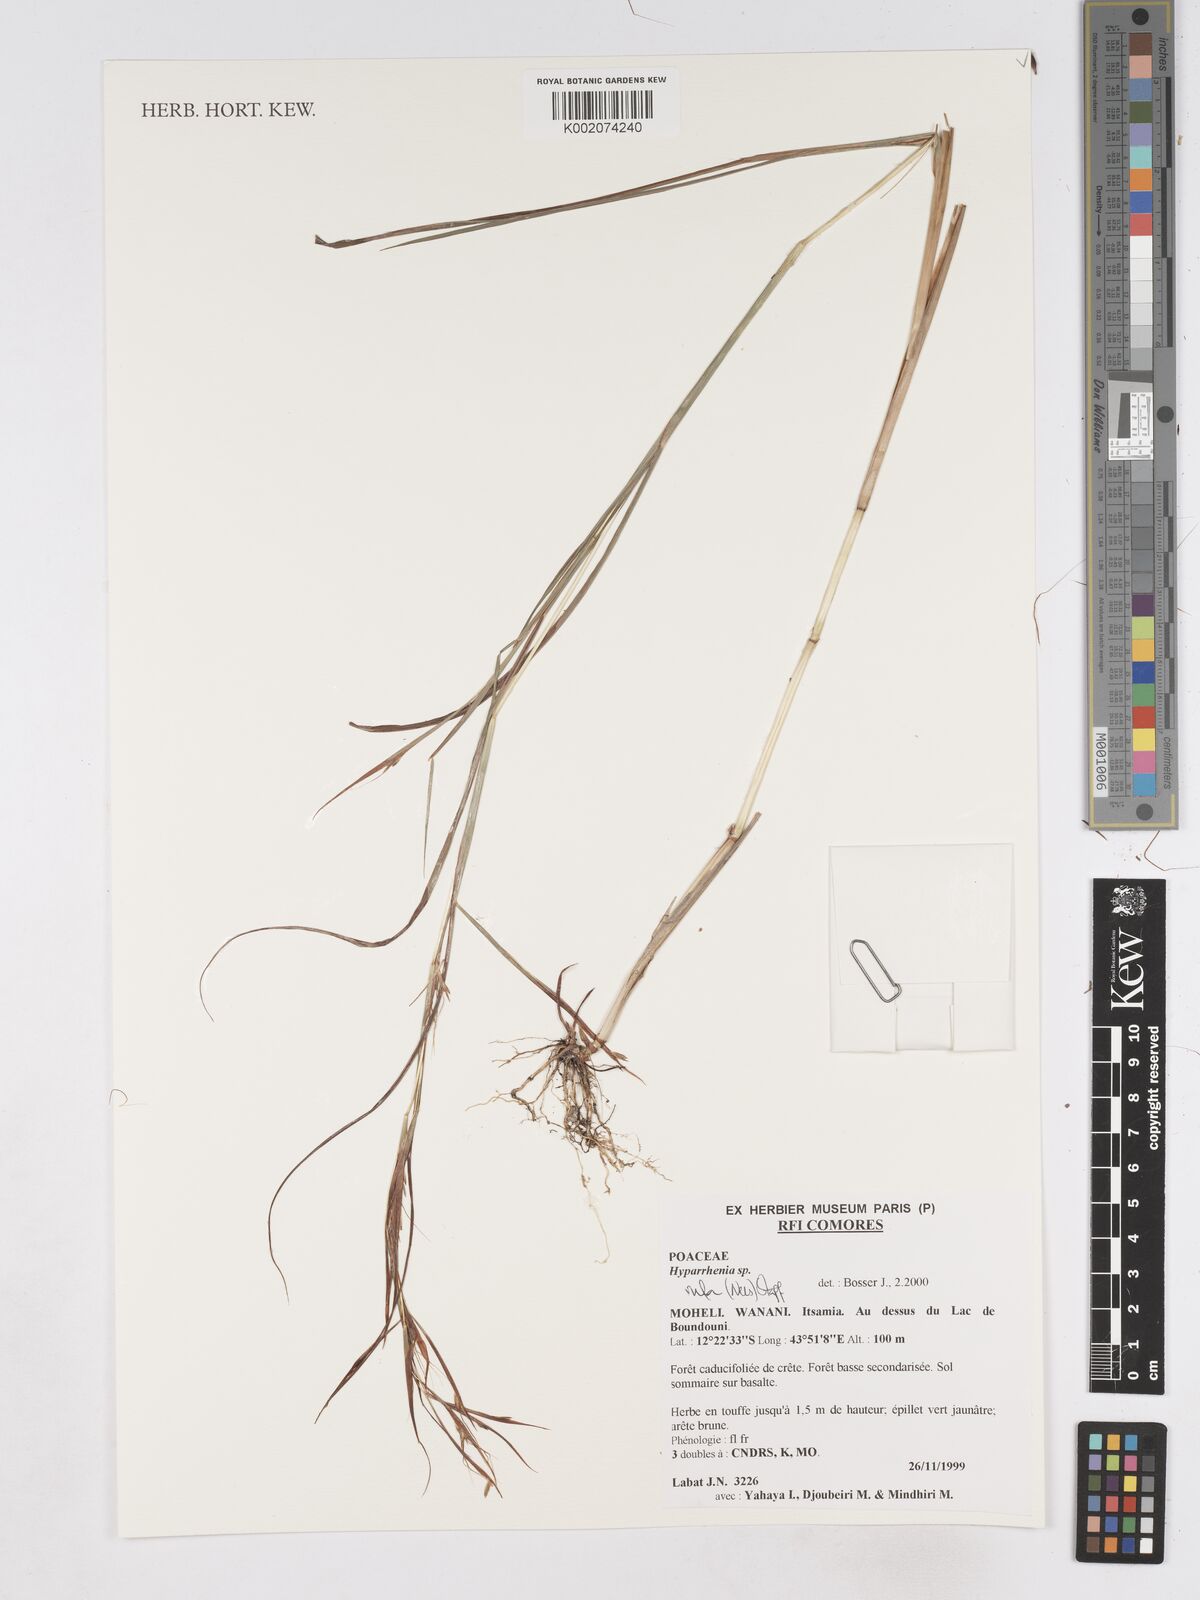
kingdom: Plantae
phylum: Tracheophyta
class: Liliopsida
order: Poales
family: Poaceae
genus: Hyparrhenia
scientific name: Hyparrhenia rufa
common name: Jaraguagrass
